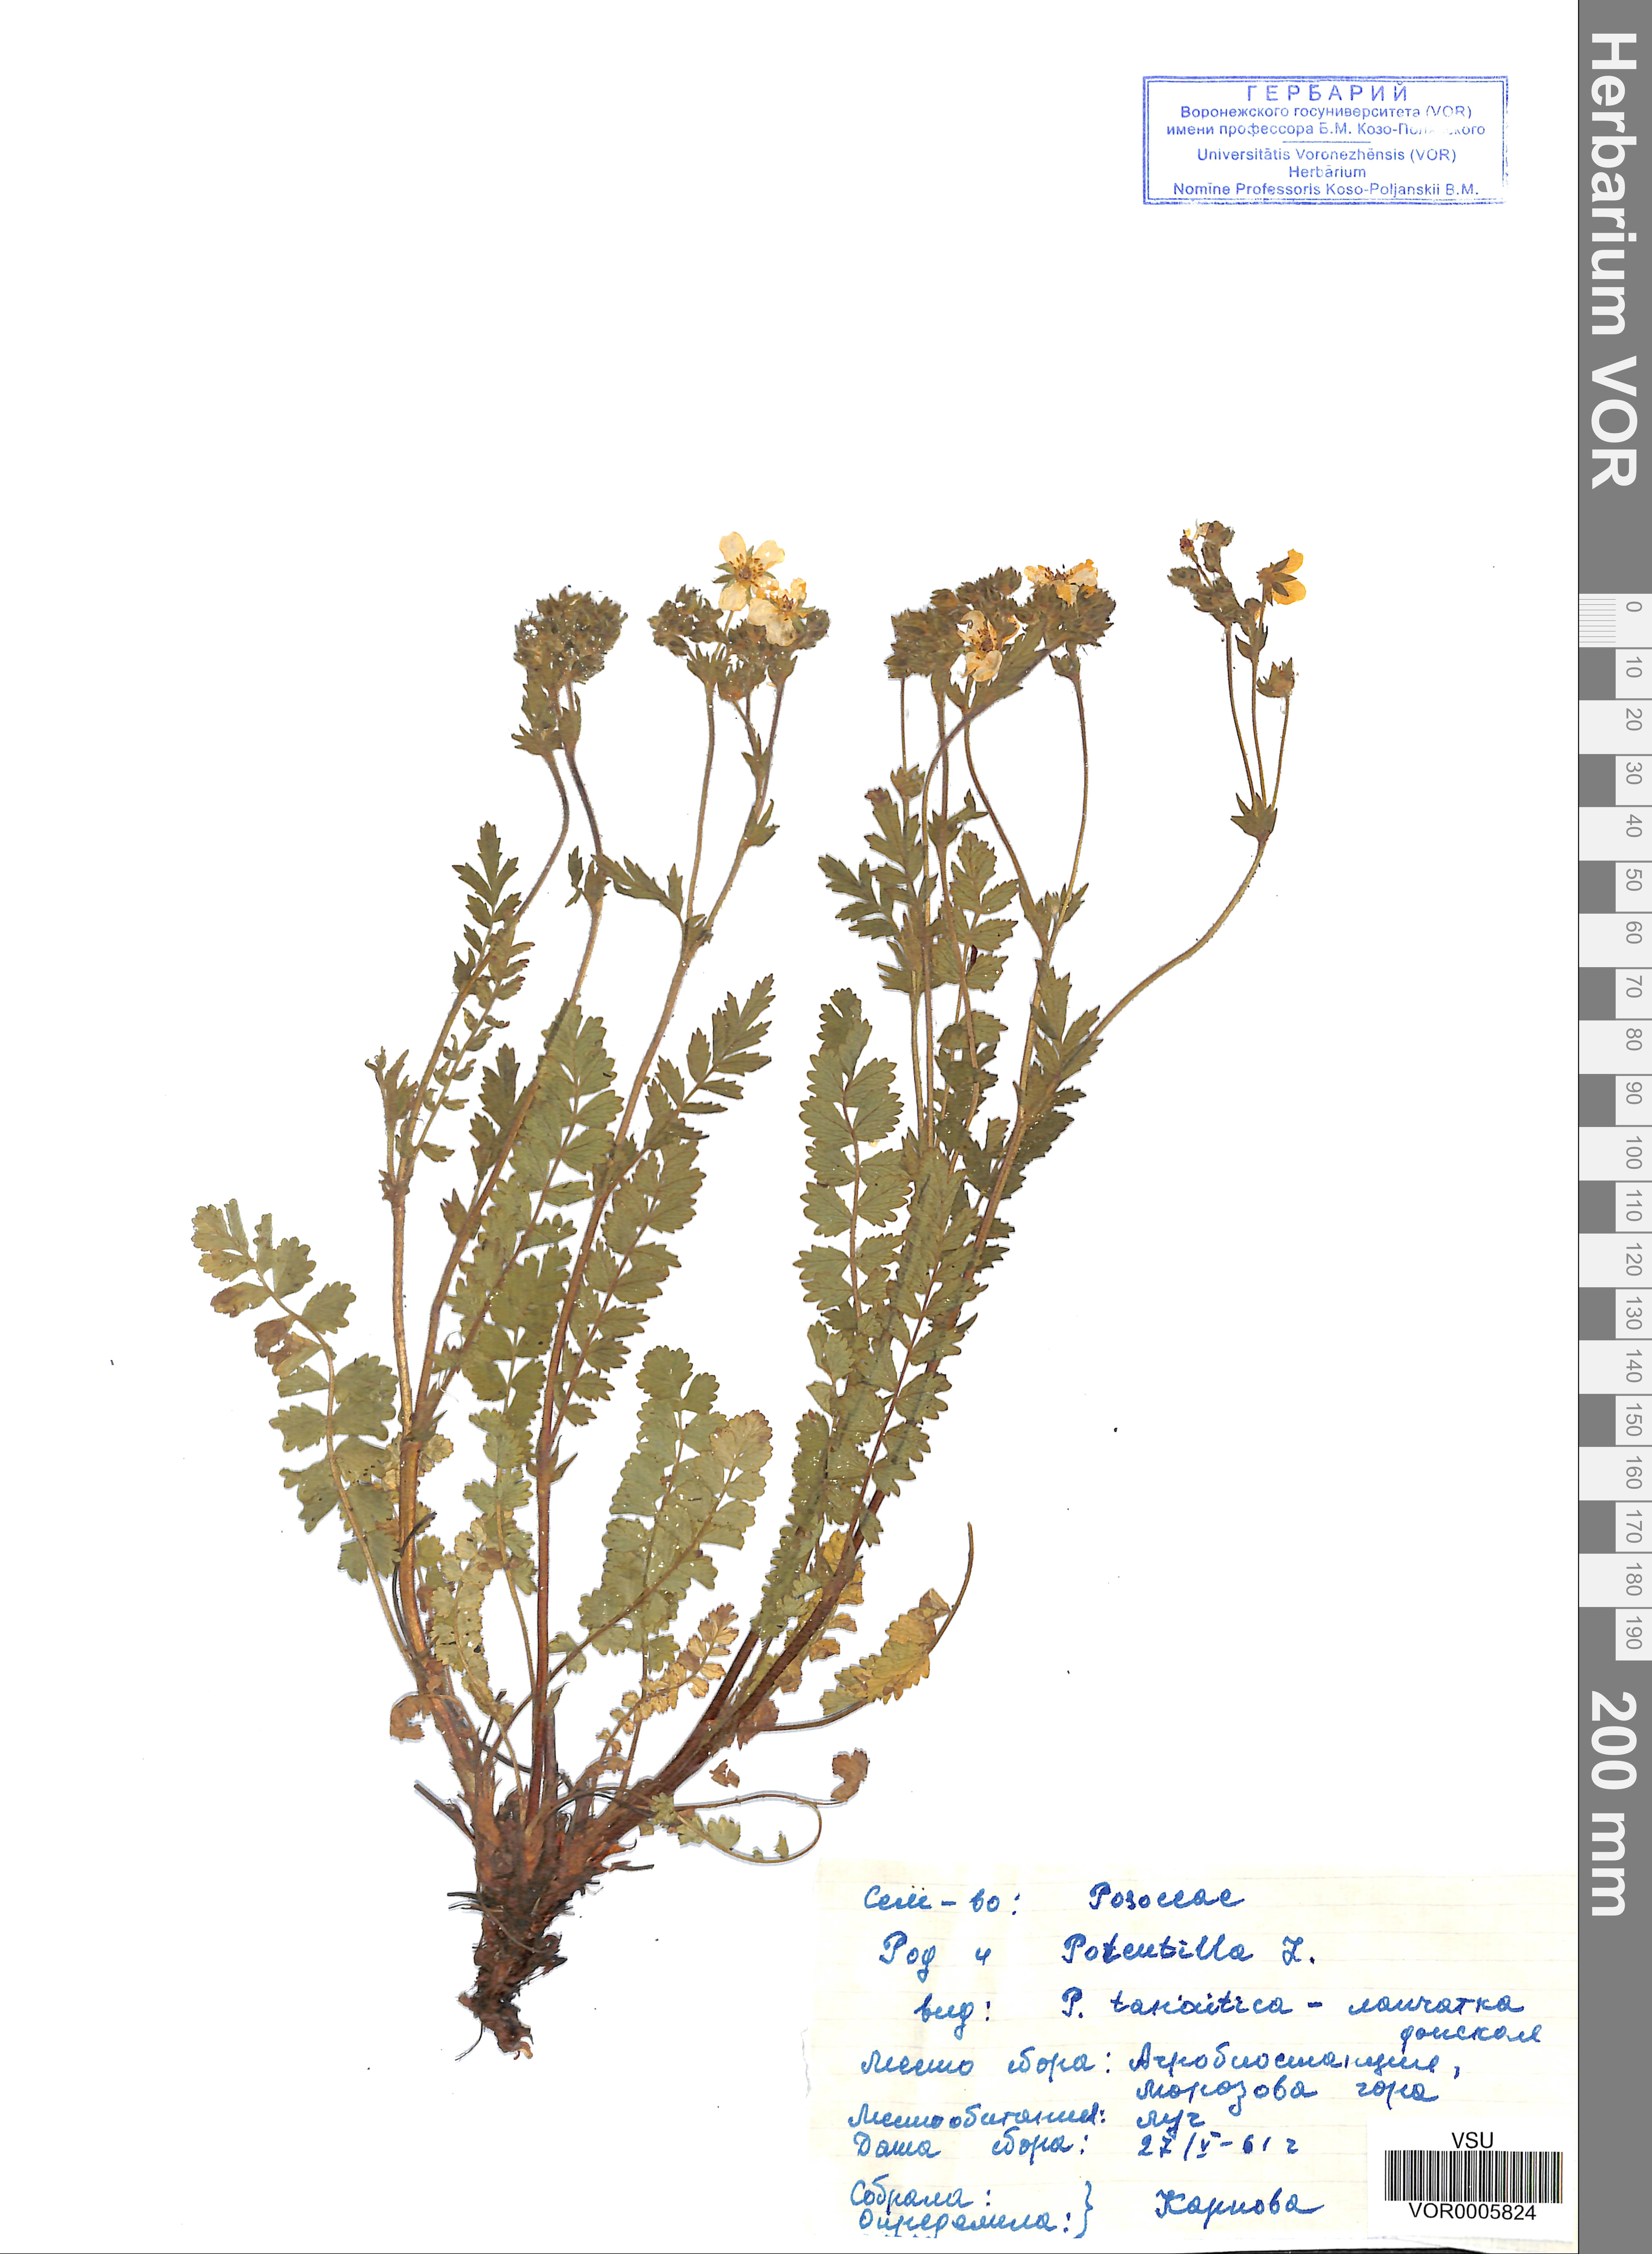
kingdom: Plantae
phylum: Tracheophyta
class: Magnoliopsida
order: Rosales
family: Rosaceae
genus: Potentilla
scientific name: Potentilla tanaitica
